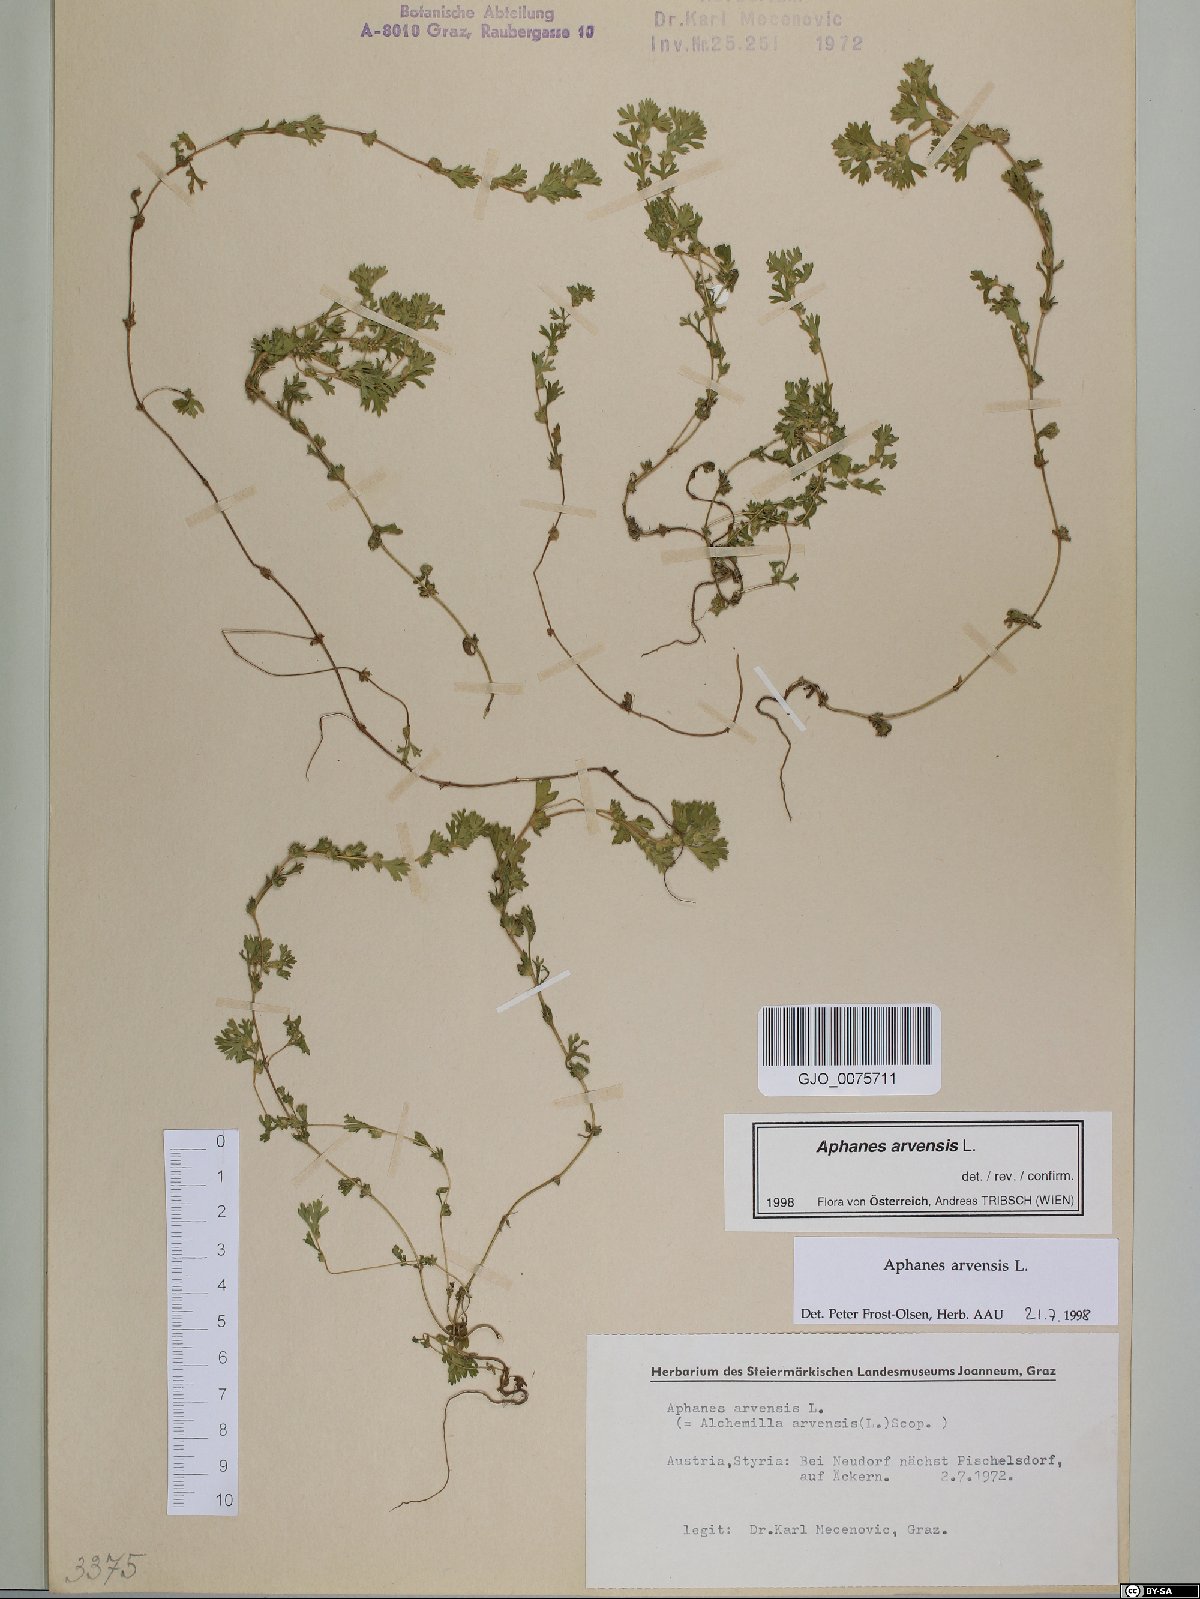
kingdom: Plantae
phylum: Tracheophyta
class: Magnoliopsida
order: Rosales
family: Rosaceae
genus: Aphanes
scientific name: Aphanes arvensis
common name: Parsley-piert
